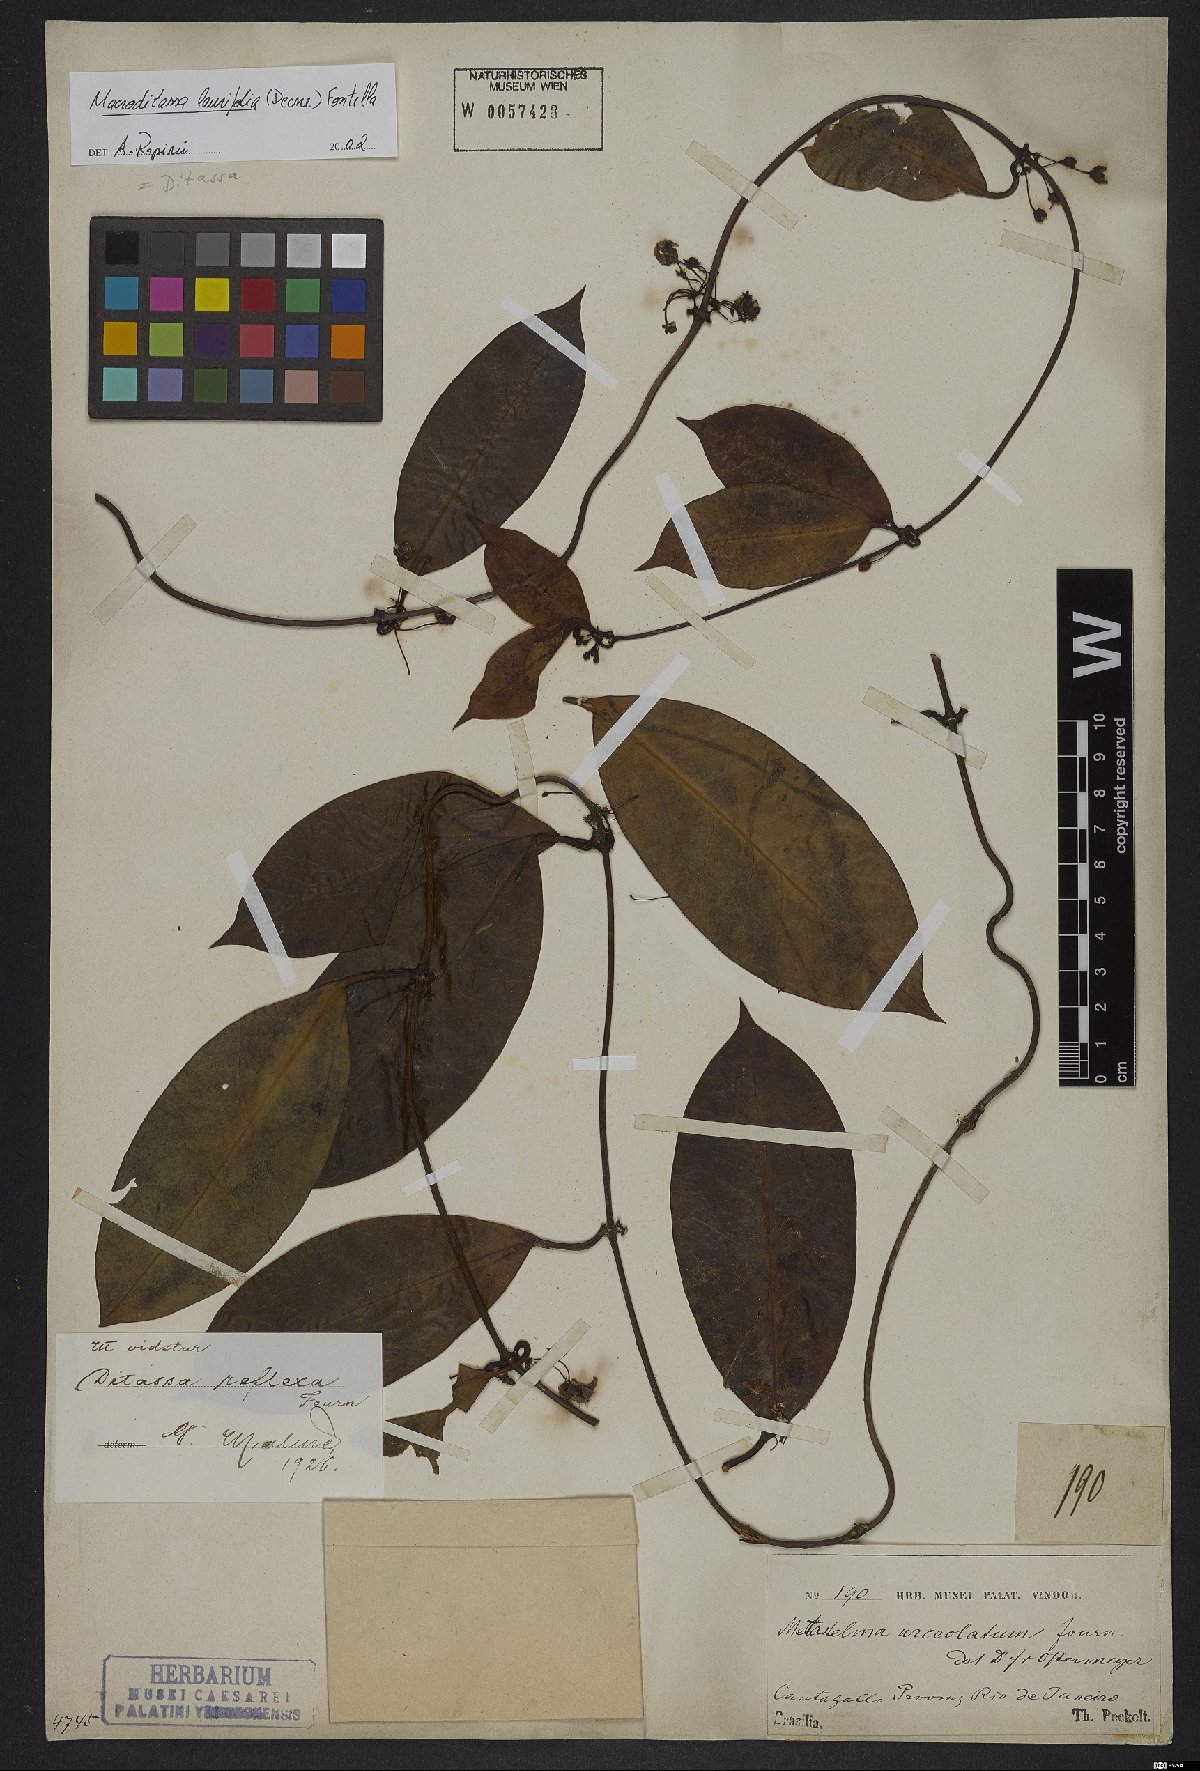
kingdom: Plantae
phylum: Tracheophyta
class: Magnoliopsida
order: Gentianales
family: Apocynaceae
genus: Nephradenia
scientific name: Nephradenia laurifolia
